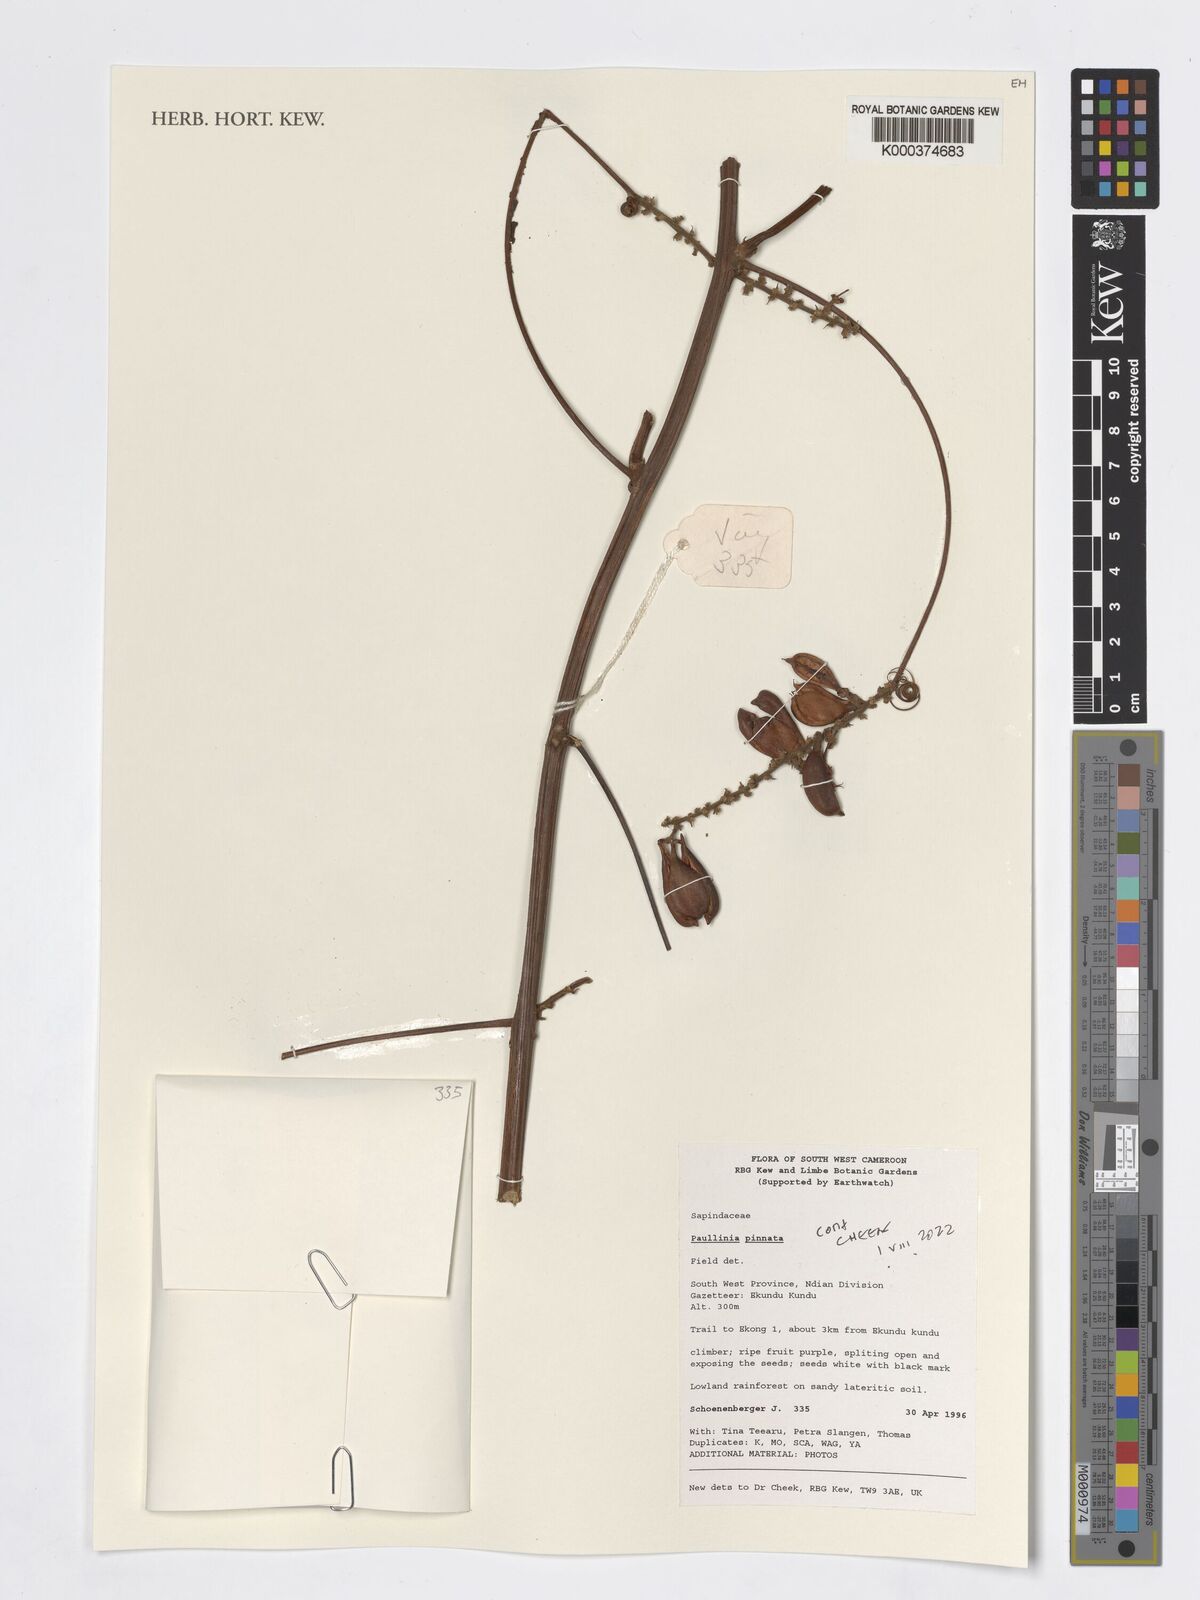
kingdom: Plantae
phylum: Tracheophyta
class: Magnoliopsida
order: Sapindales
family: Sapindaceae
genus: Paullinia
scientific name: Paullinia pinnata
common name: Barbasco
